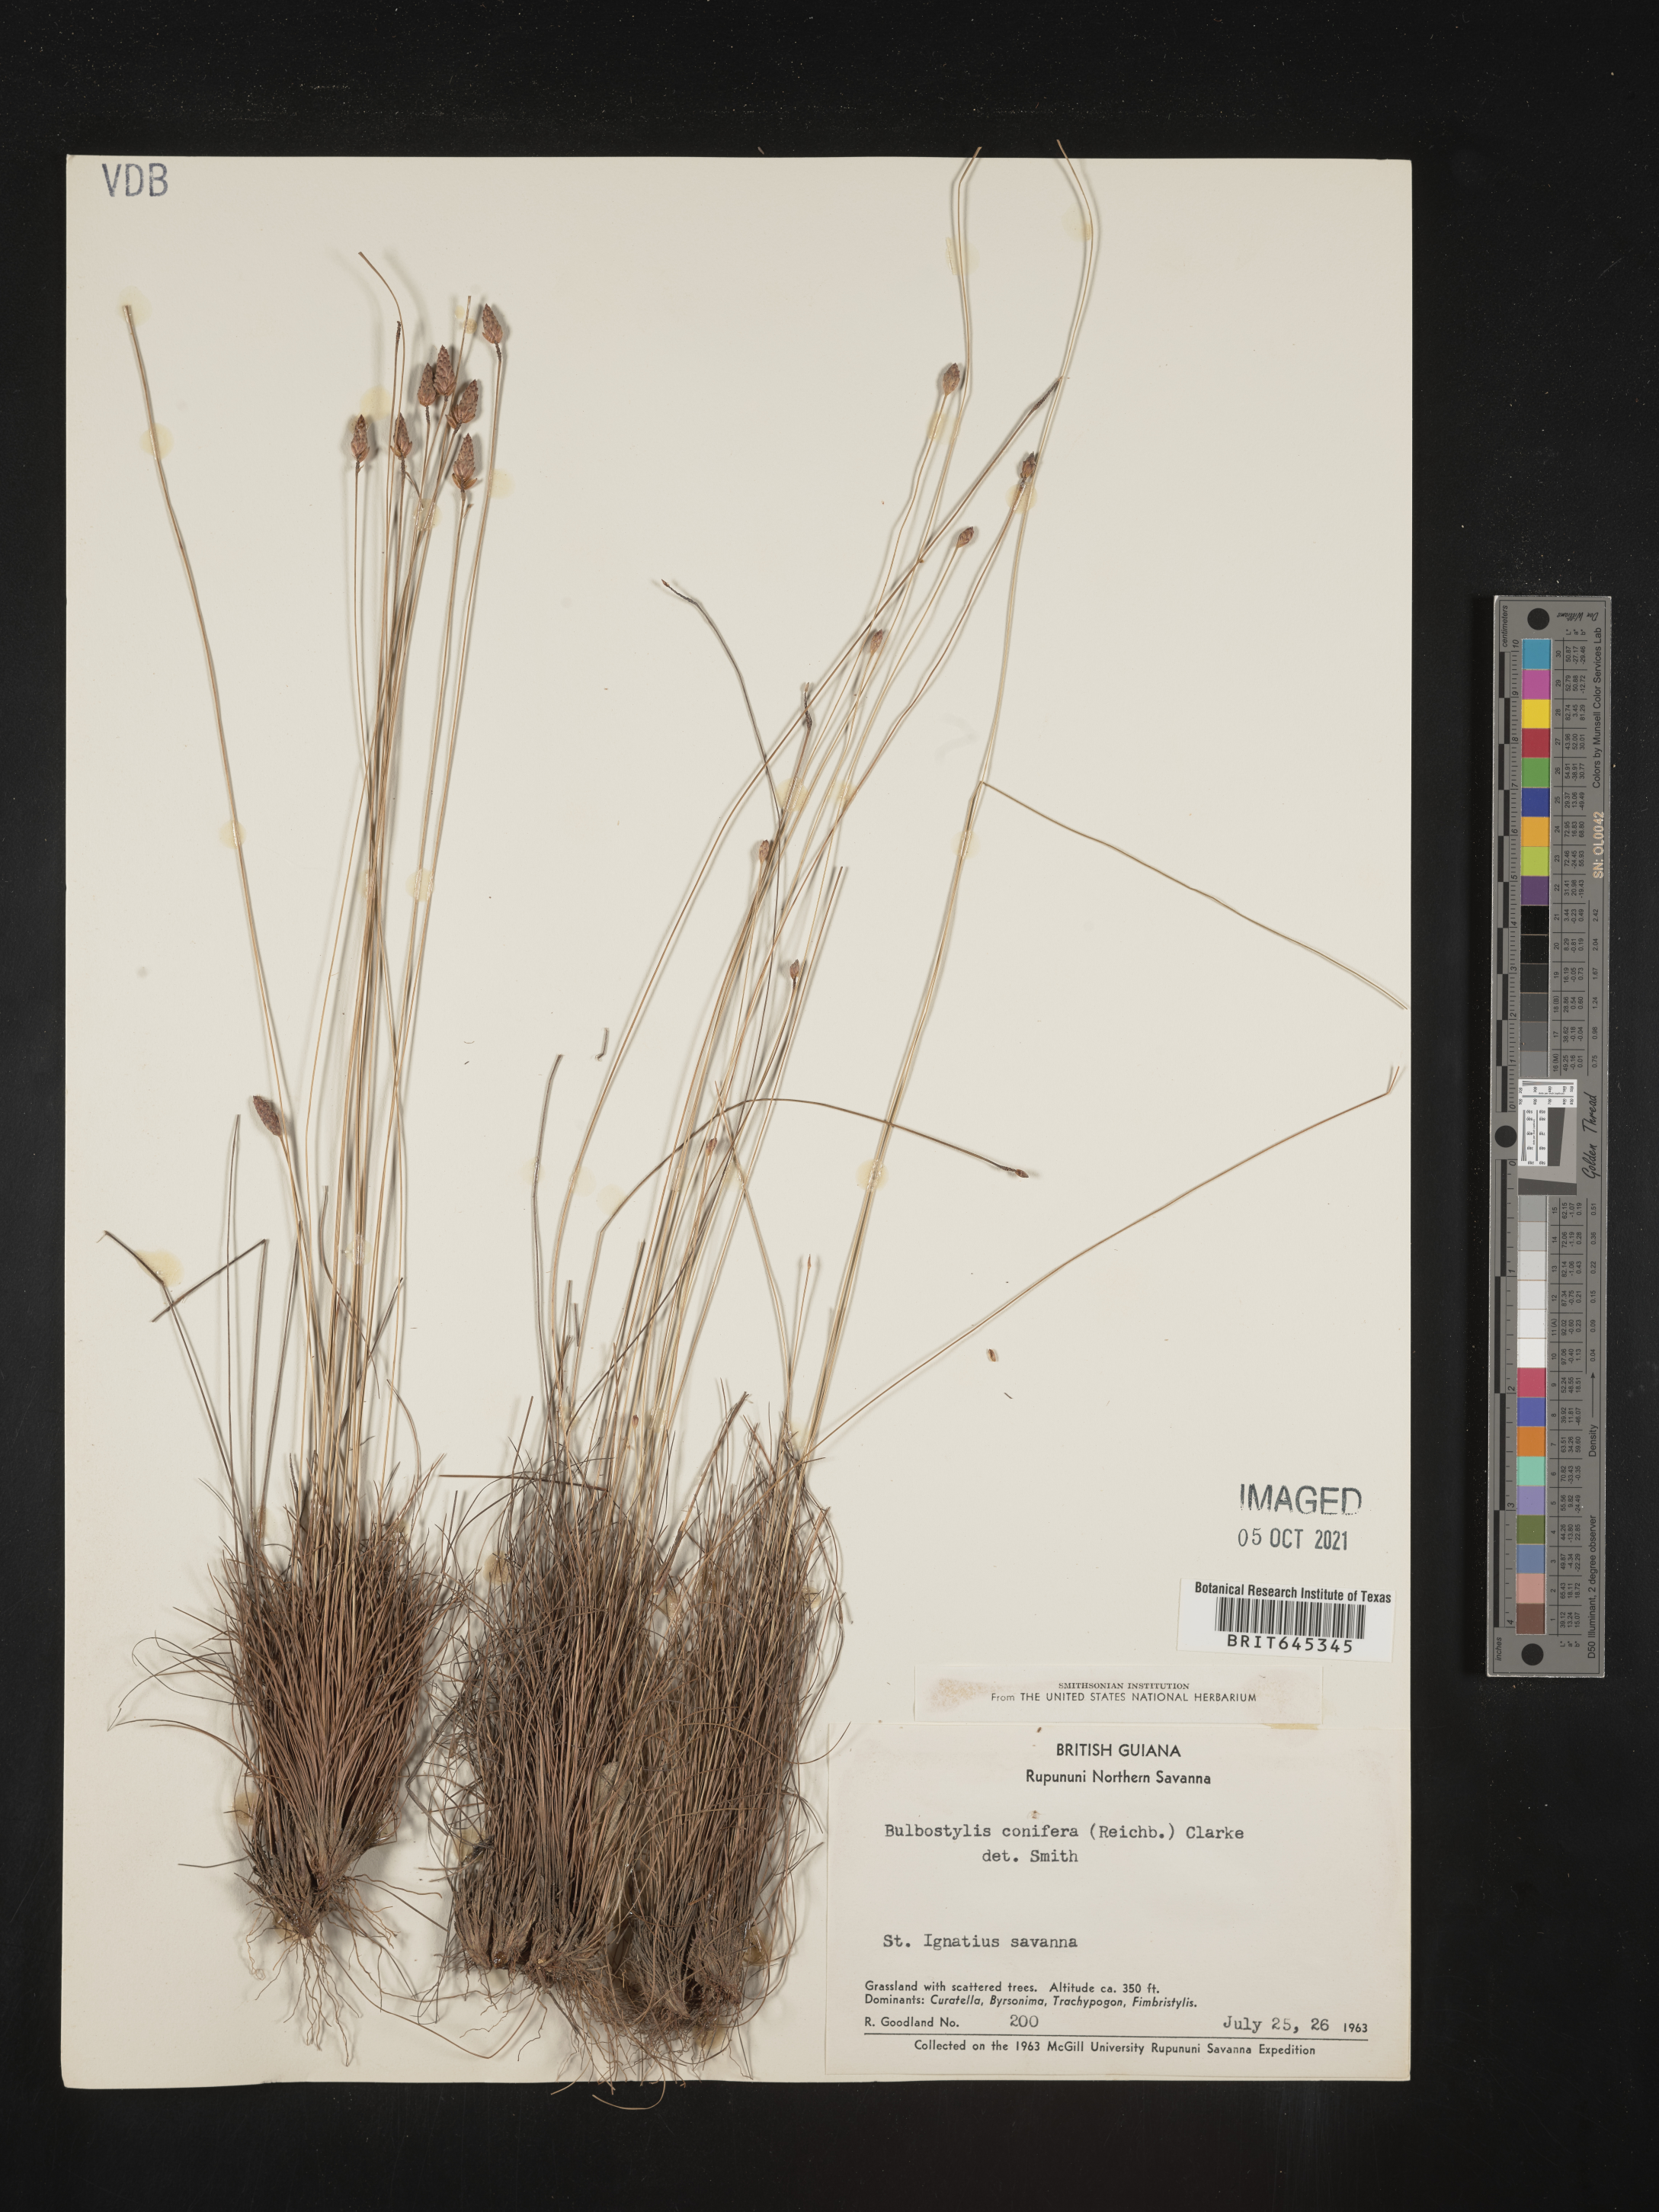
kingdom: Plantae
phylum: Tracheophyta
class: Liliopsida
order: Poales
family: Cyperaceae
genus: Bulbostylis
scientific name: Bulbostylis conifera
